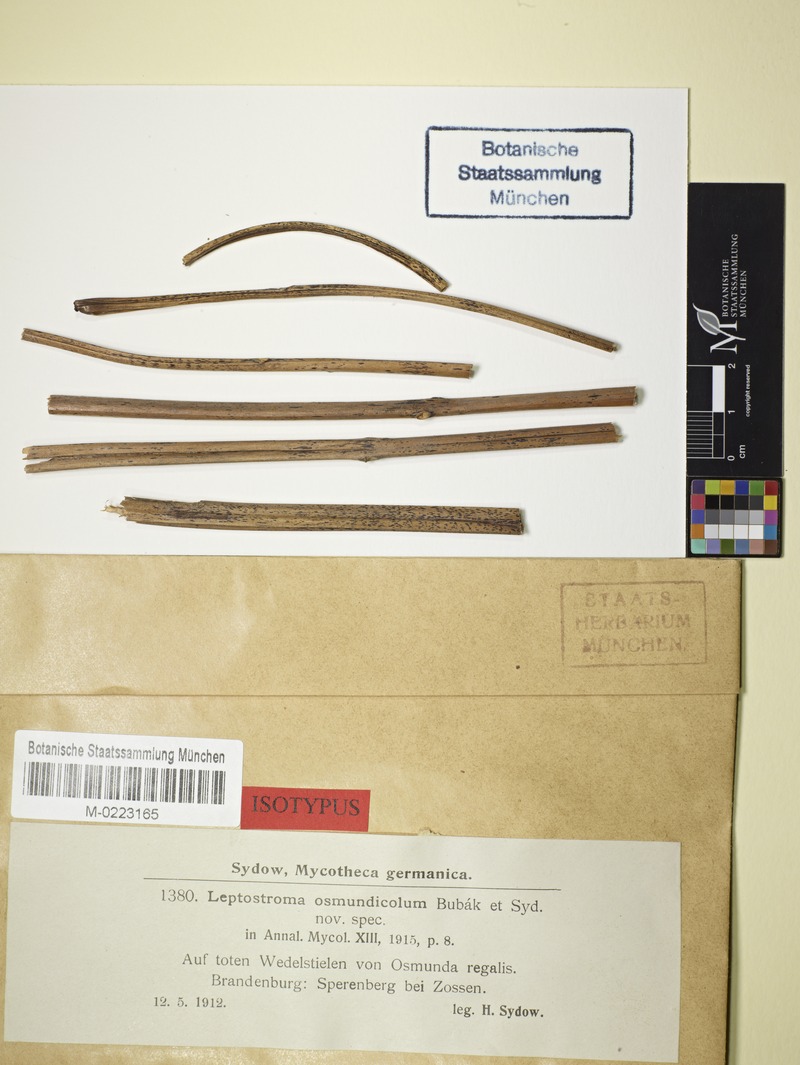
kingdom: Fungi
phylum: Ascomycota
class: Leotiomycetes
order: Rhytismatales
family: Rhytismataceae
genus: Leptostroma
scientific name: Leptostroma osmundicola
